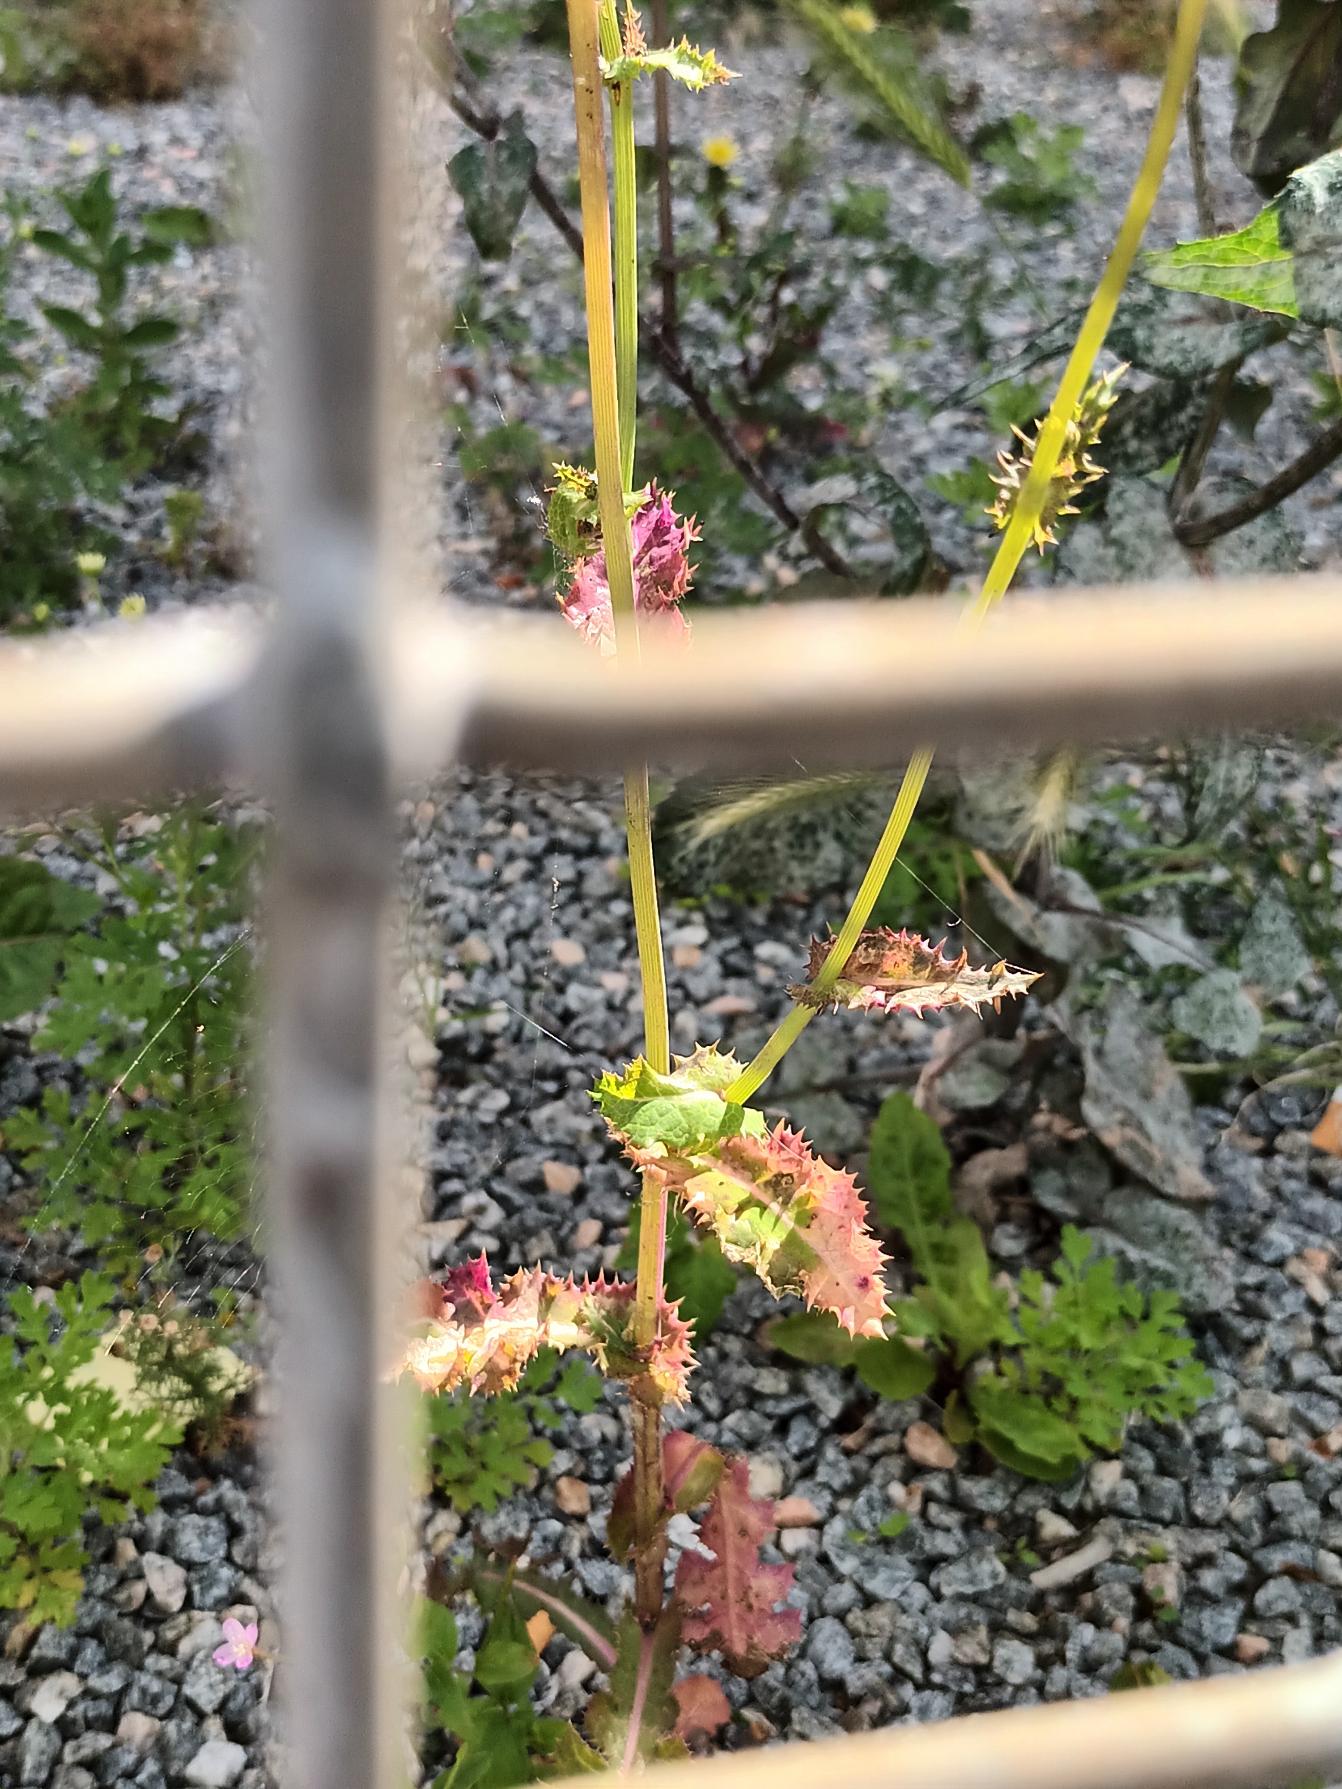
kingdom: Plantae
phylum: Tracheophyta
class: Magnoliopsida
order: Asterales
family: Asteraceae
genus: Sonchus
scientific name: Sonchus asper
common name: Ru svinemælk
